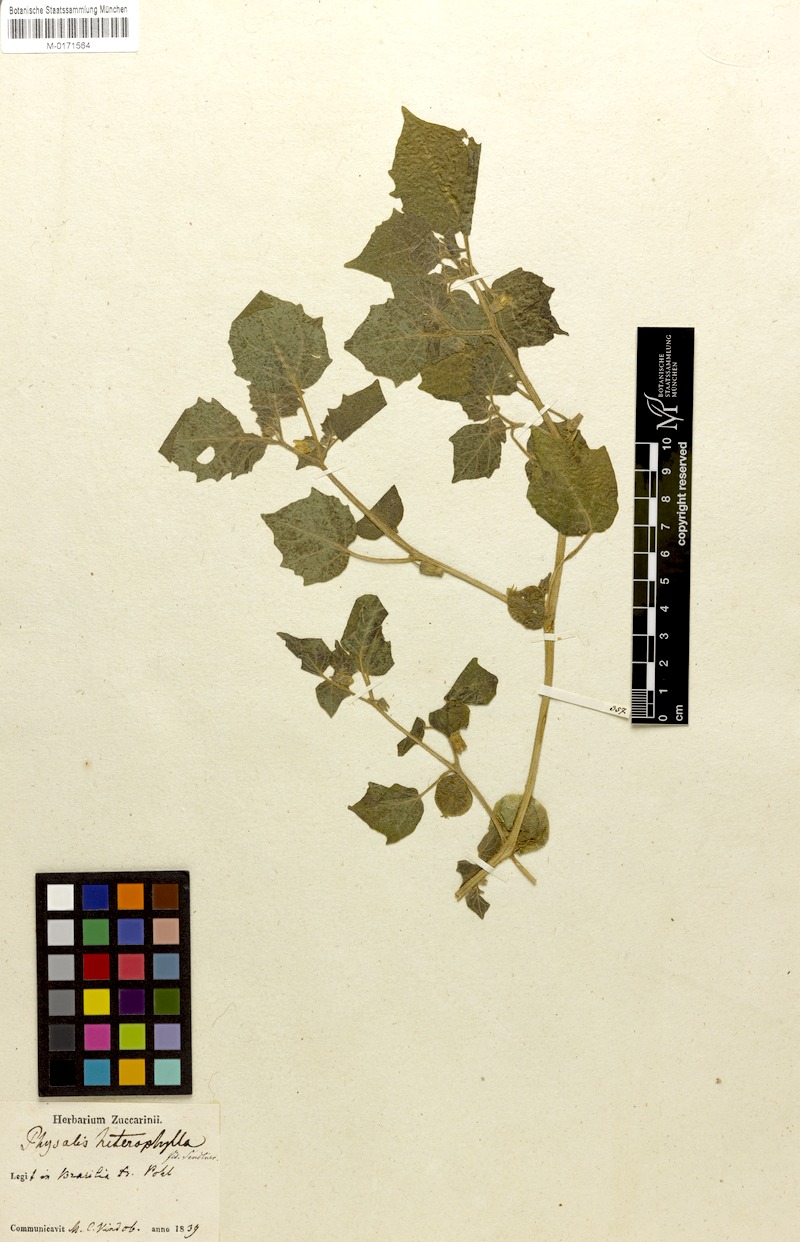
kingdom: Plantae
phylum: Tracheophyta
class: Magnoliopsida
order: Solanales
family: Solanaceae
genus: Physalis
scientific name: Physalis heterophylla
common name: Clammy ground-cherry
